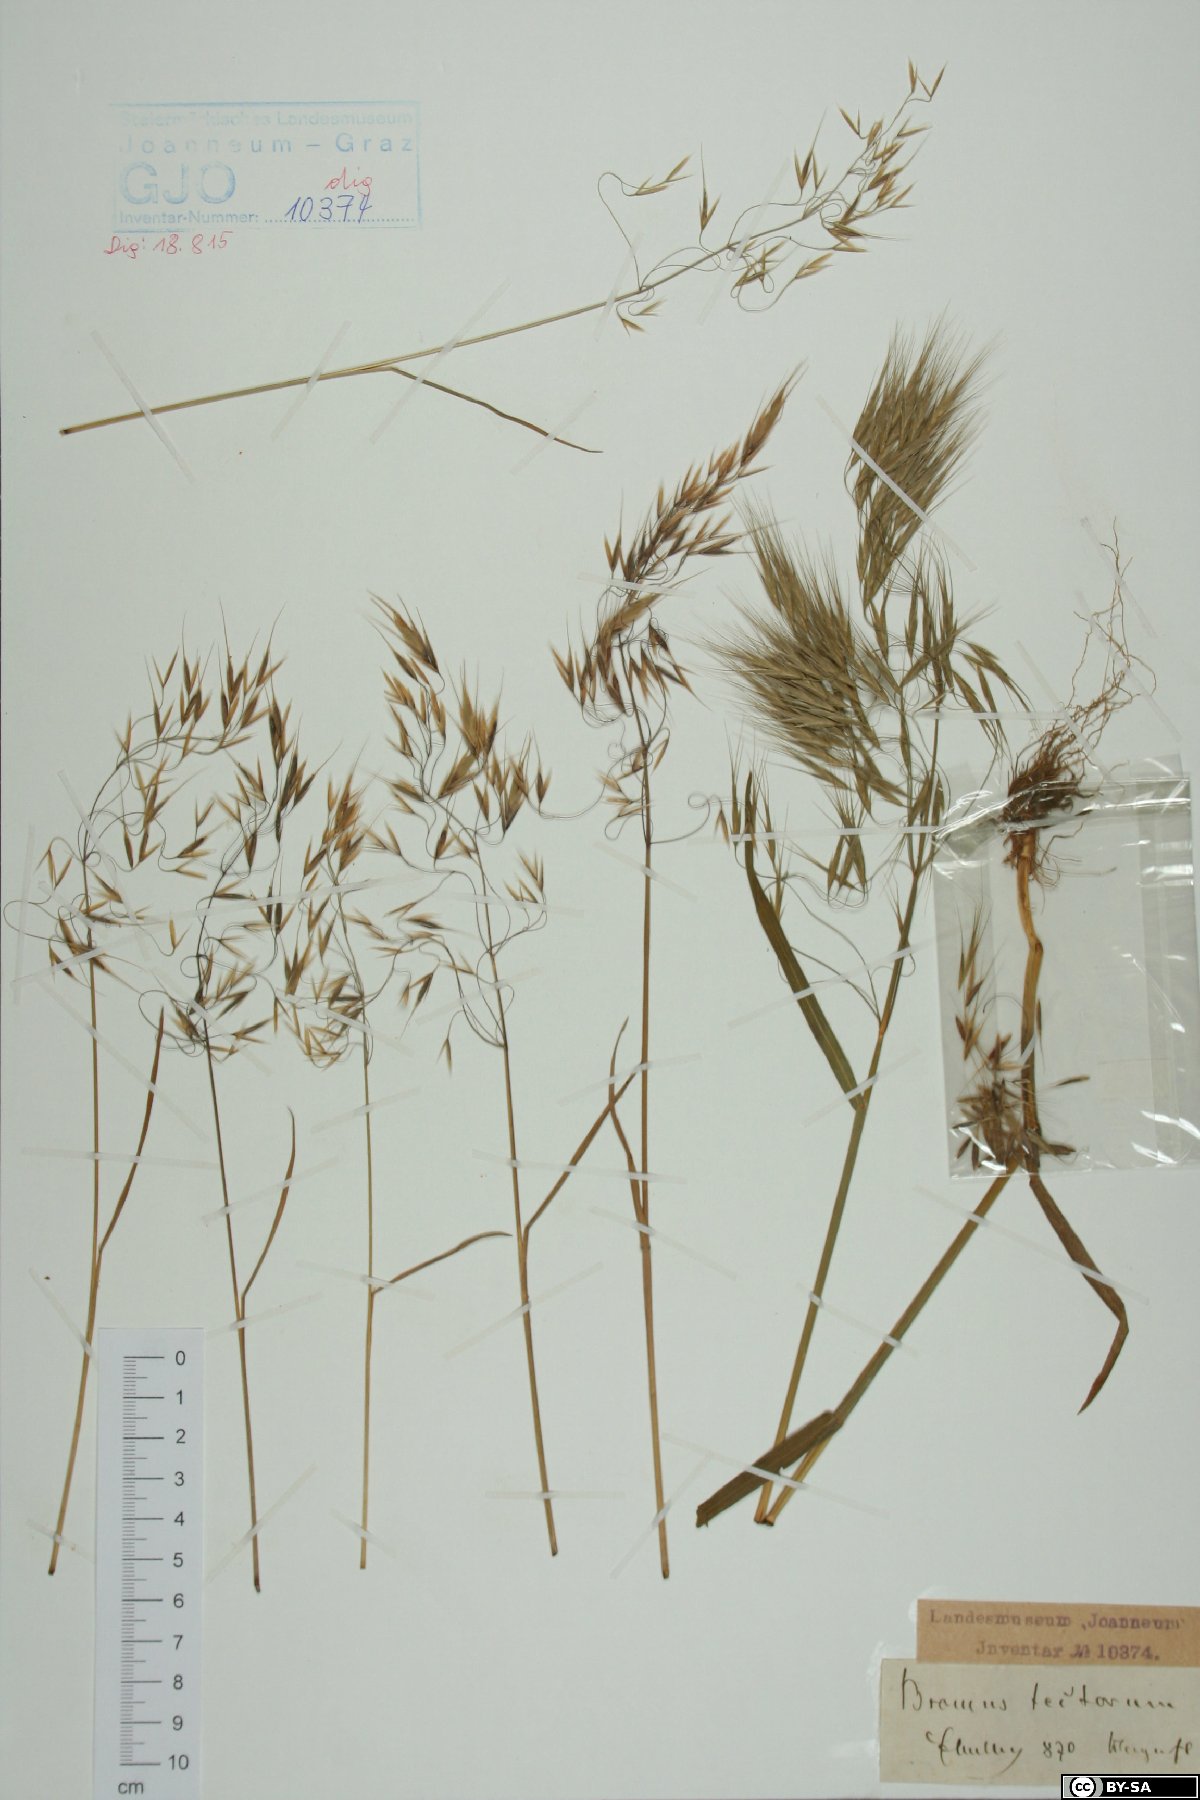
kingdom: Plantae
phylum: Tracheophyta
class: Liliopsida
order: Poales
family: Poaceae
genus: Bromus
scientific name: Bromus tectorum
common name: Cheatgrass
